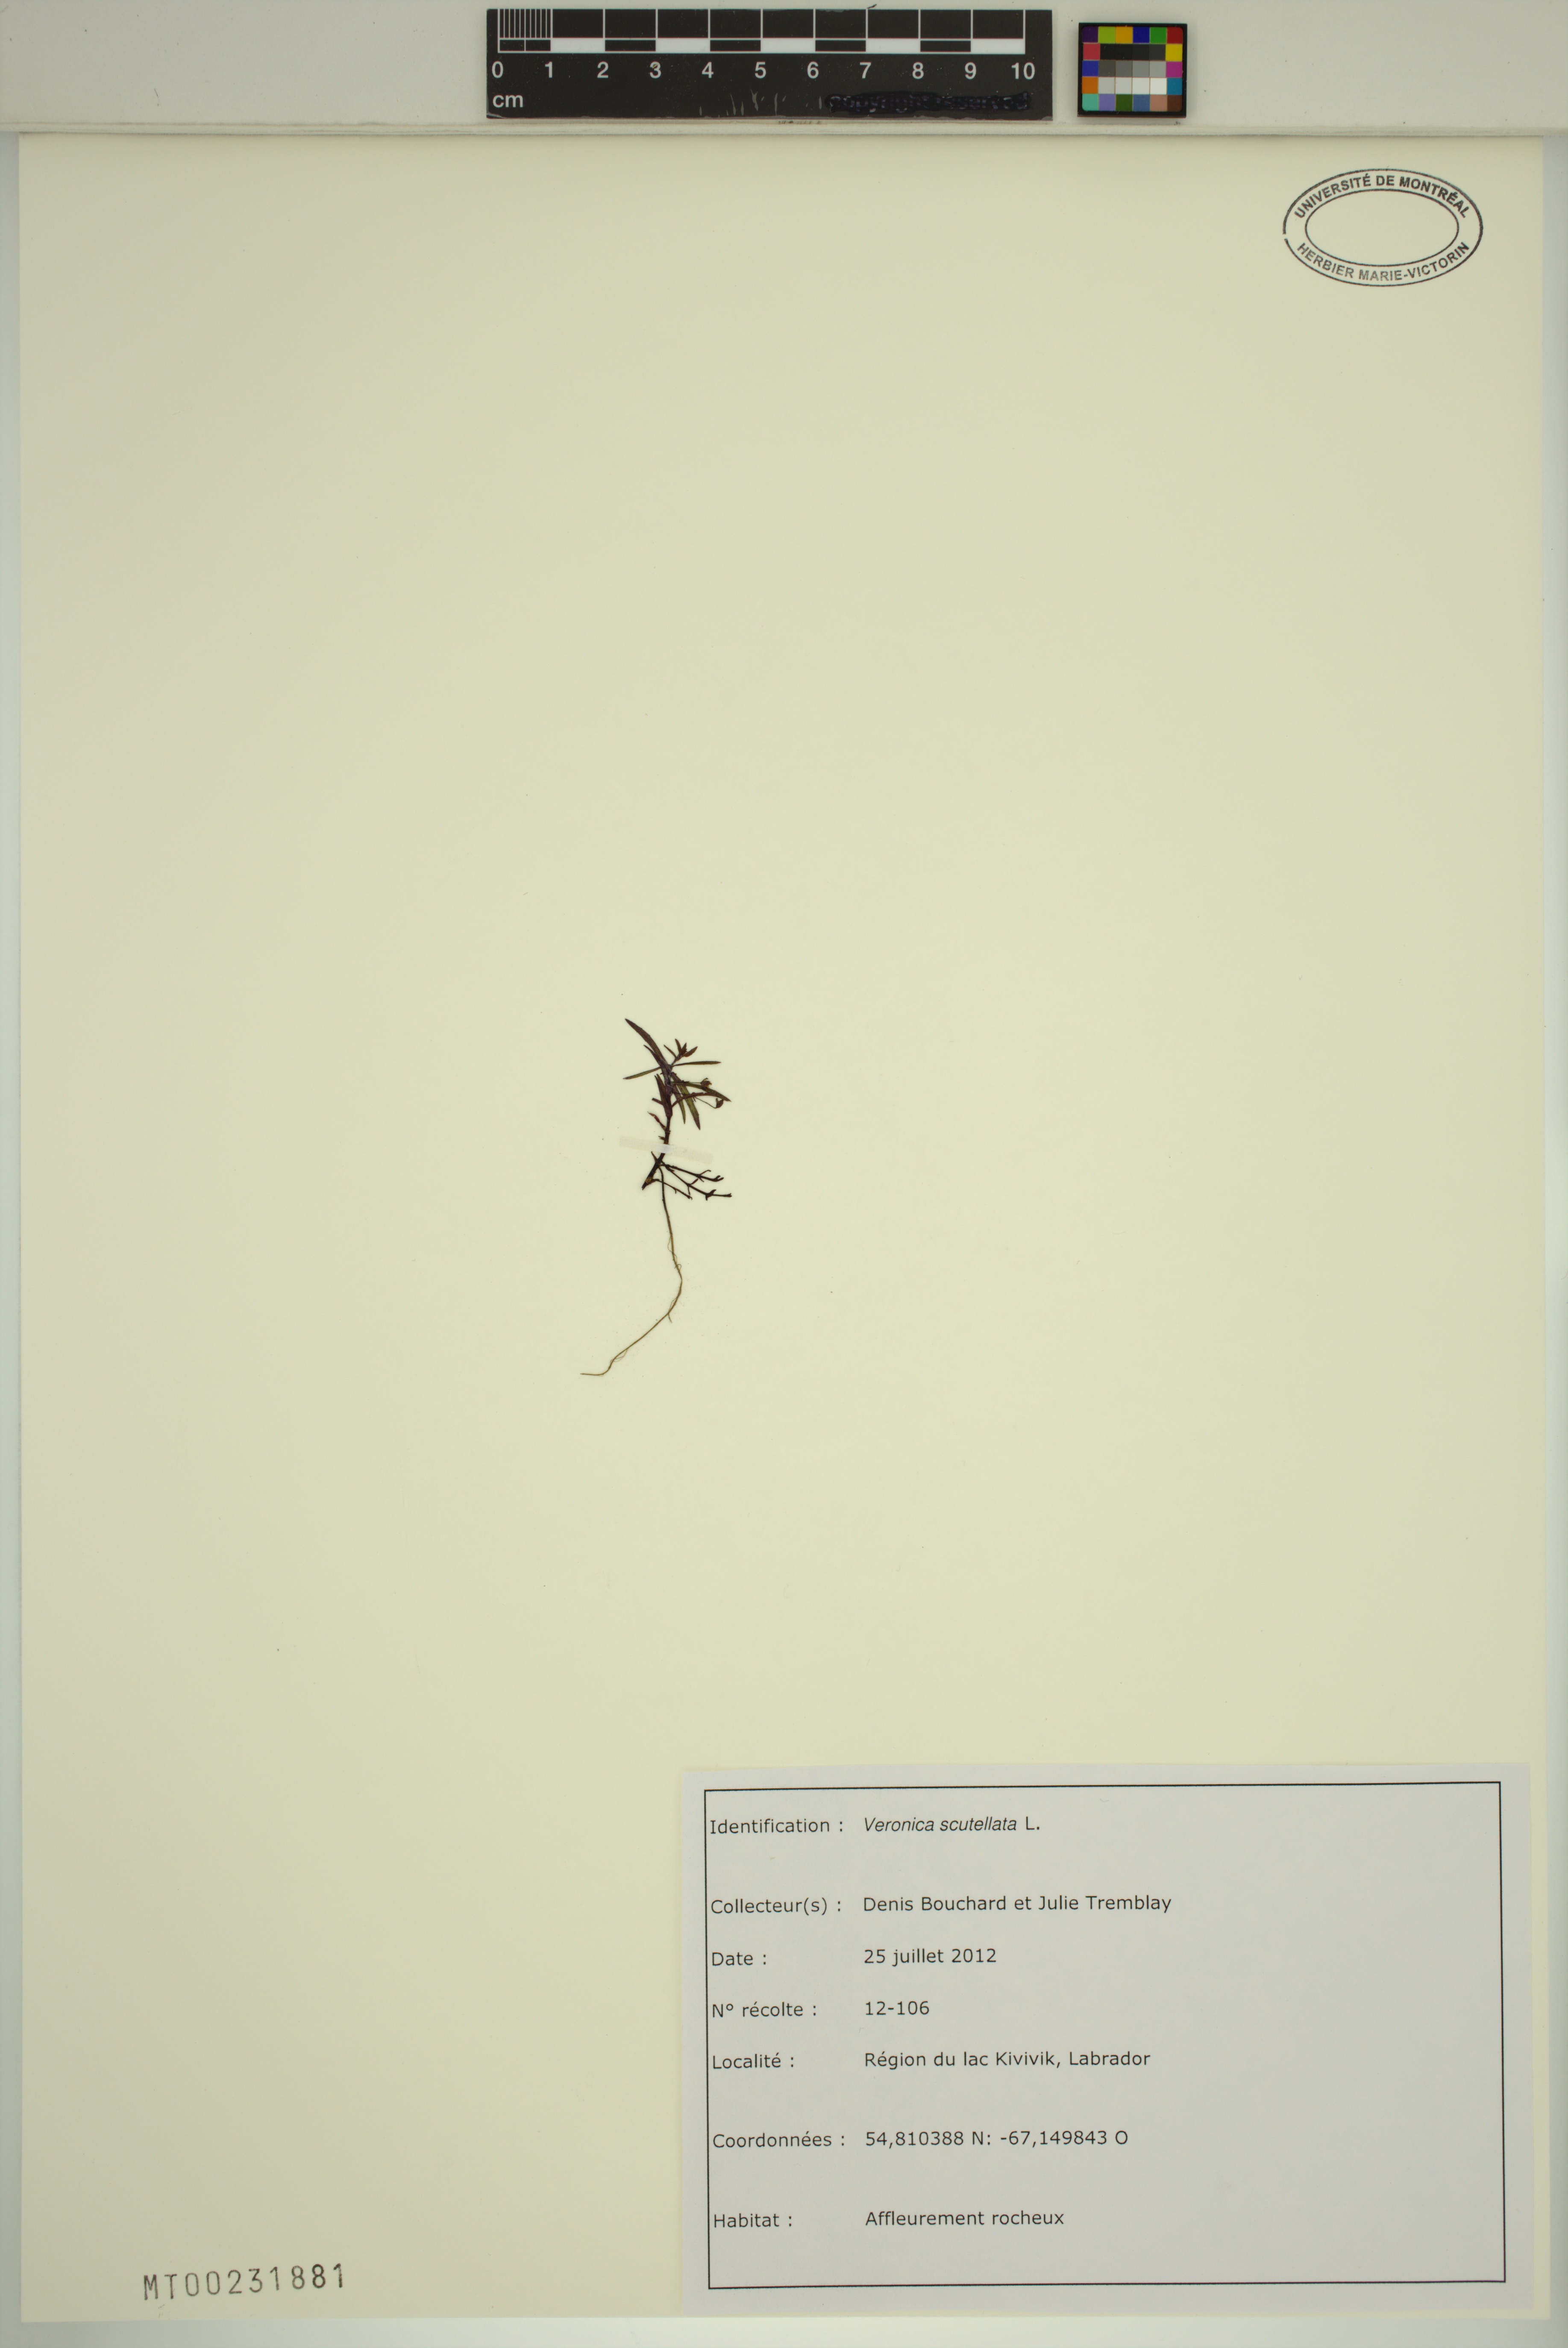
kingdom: Plantae
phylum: Tracheophyta
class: Magnoliopsida
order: Lamiales
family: Plantaginaceae
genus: Veronica
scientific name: Veronica scutellata
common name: Marsh speedwell
